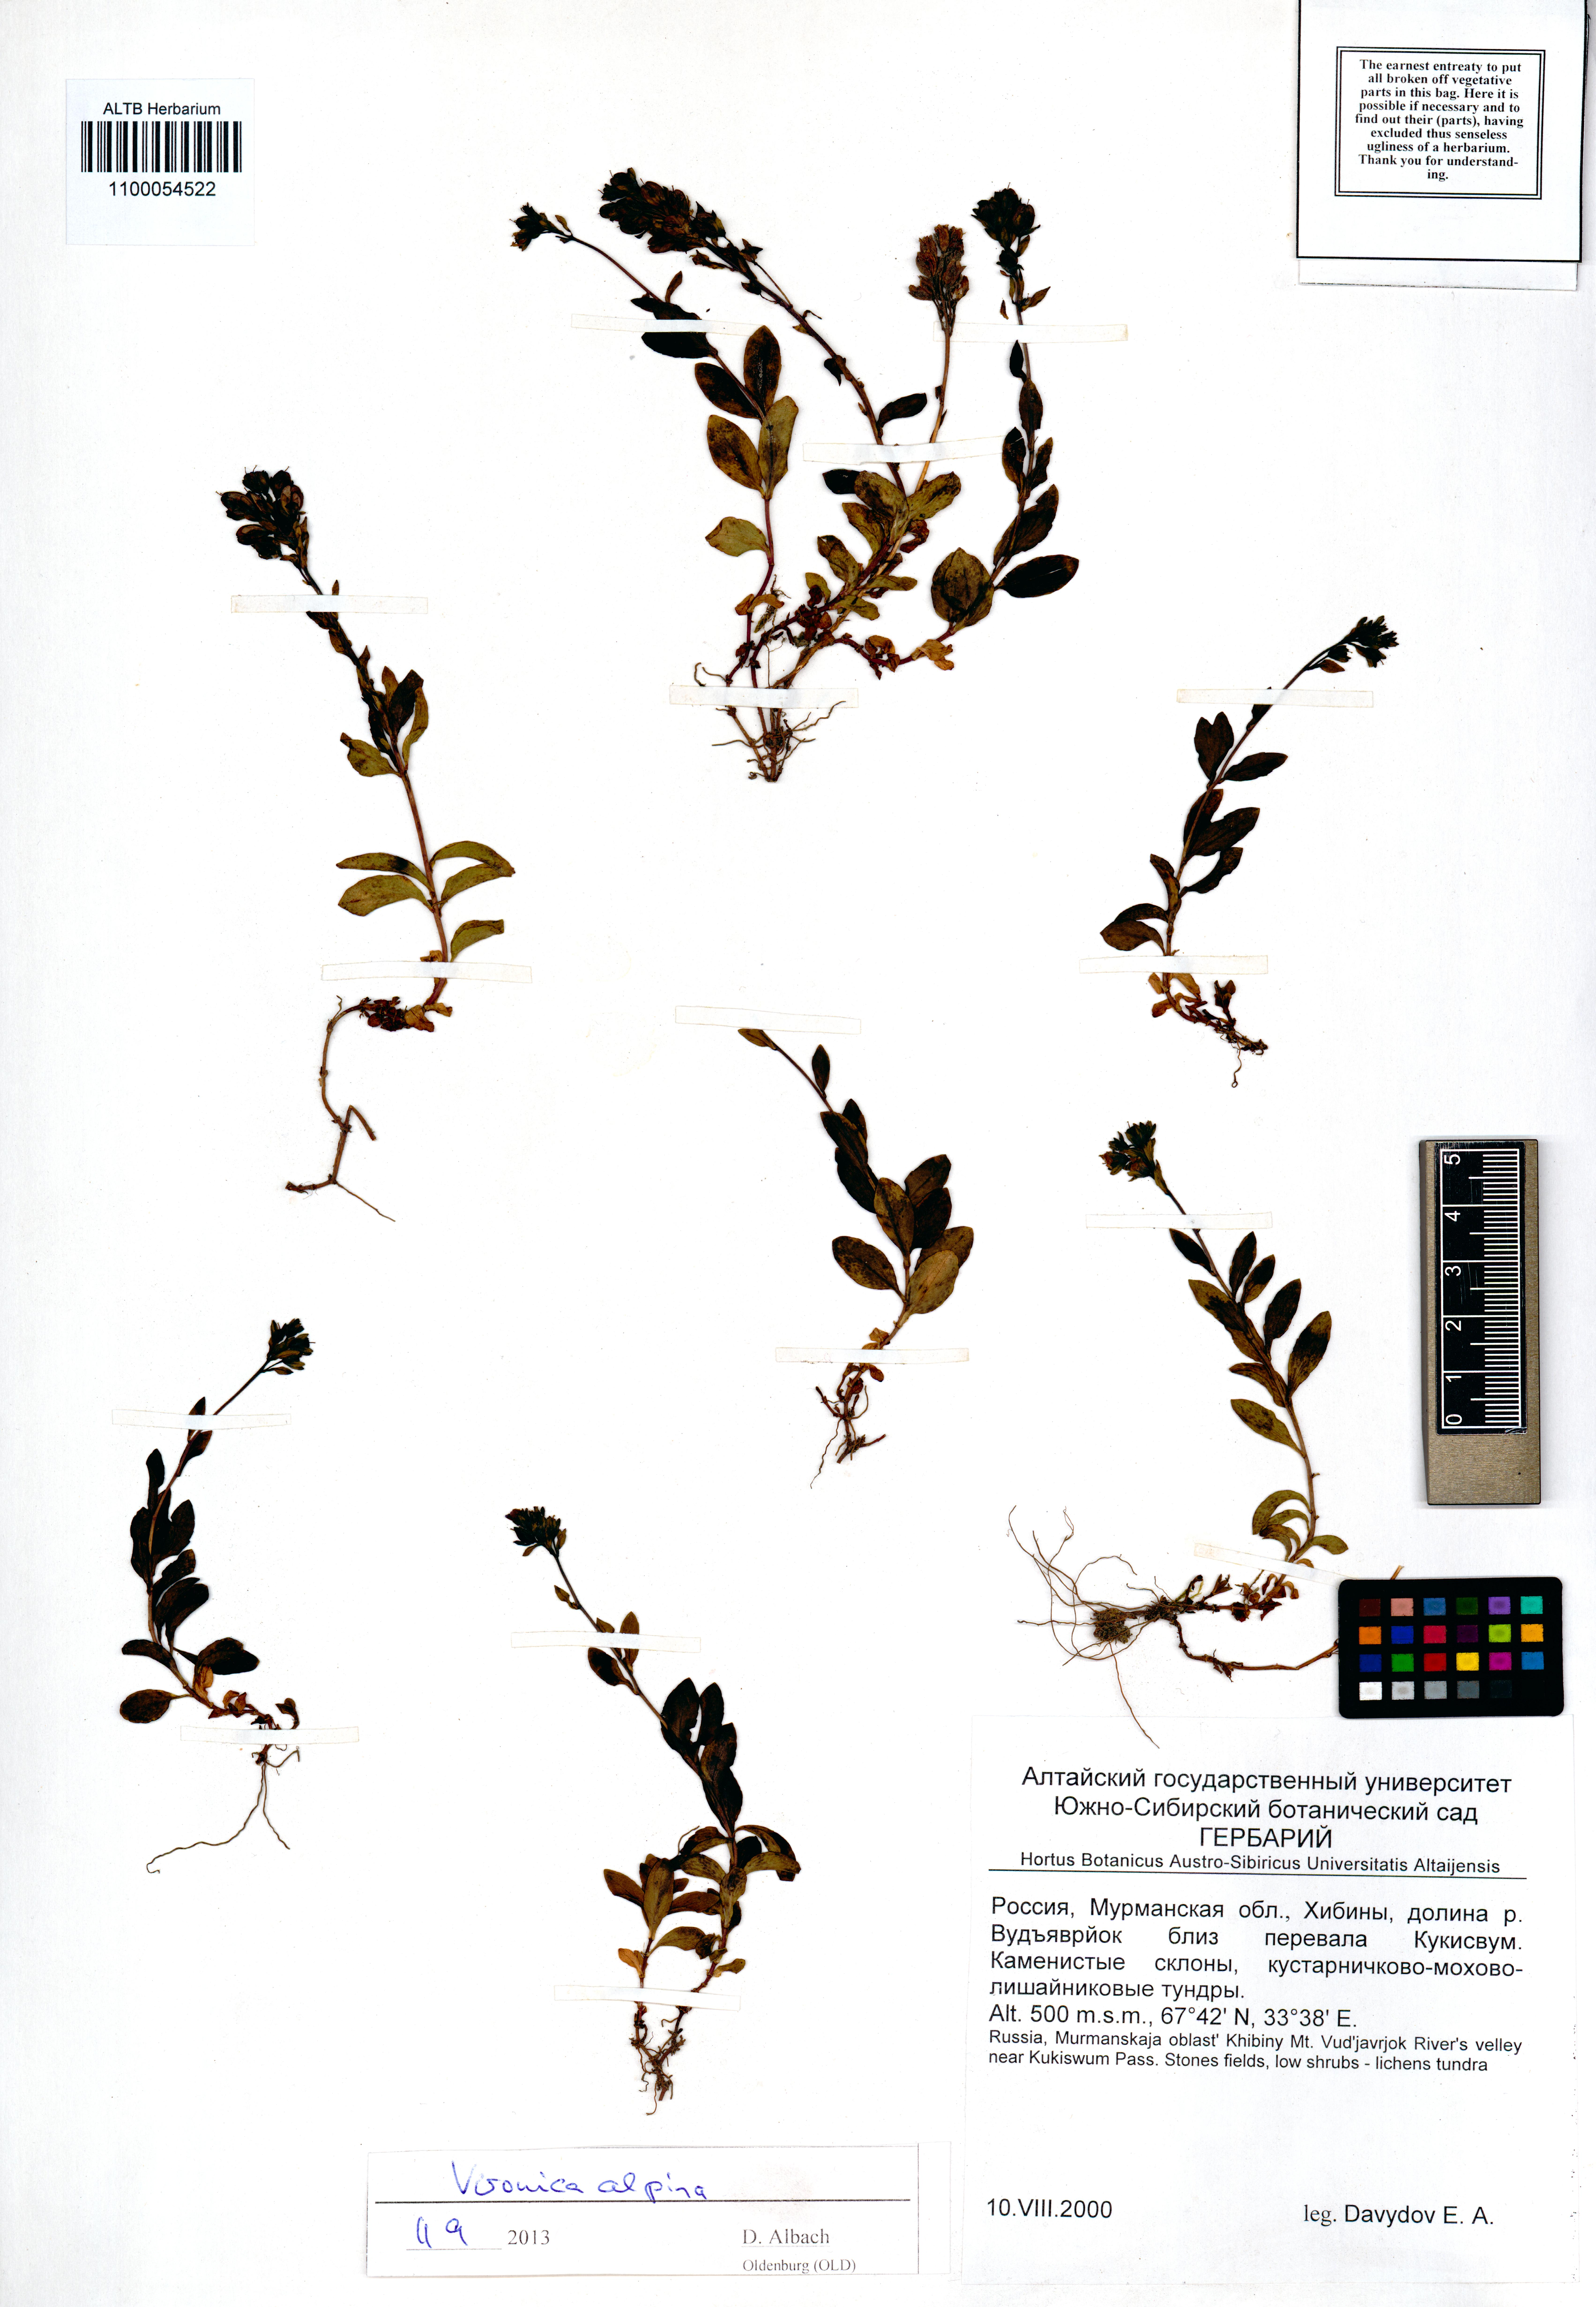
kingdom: Plantae
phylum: Tracheophyta
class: Magnoliopsida
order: Lamiales
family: Plantaginaceae
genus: Veronica
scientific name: Veronica alpina
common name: Alpine speedwell
